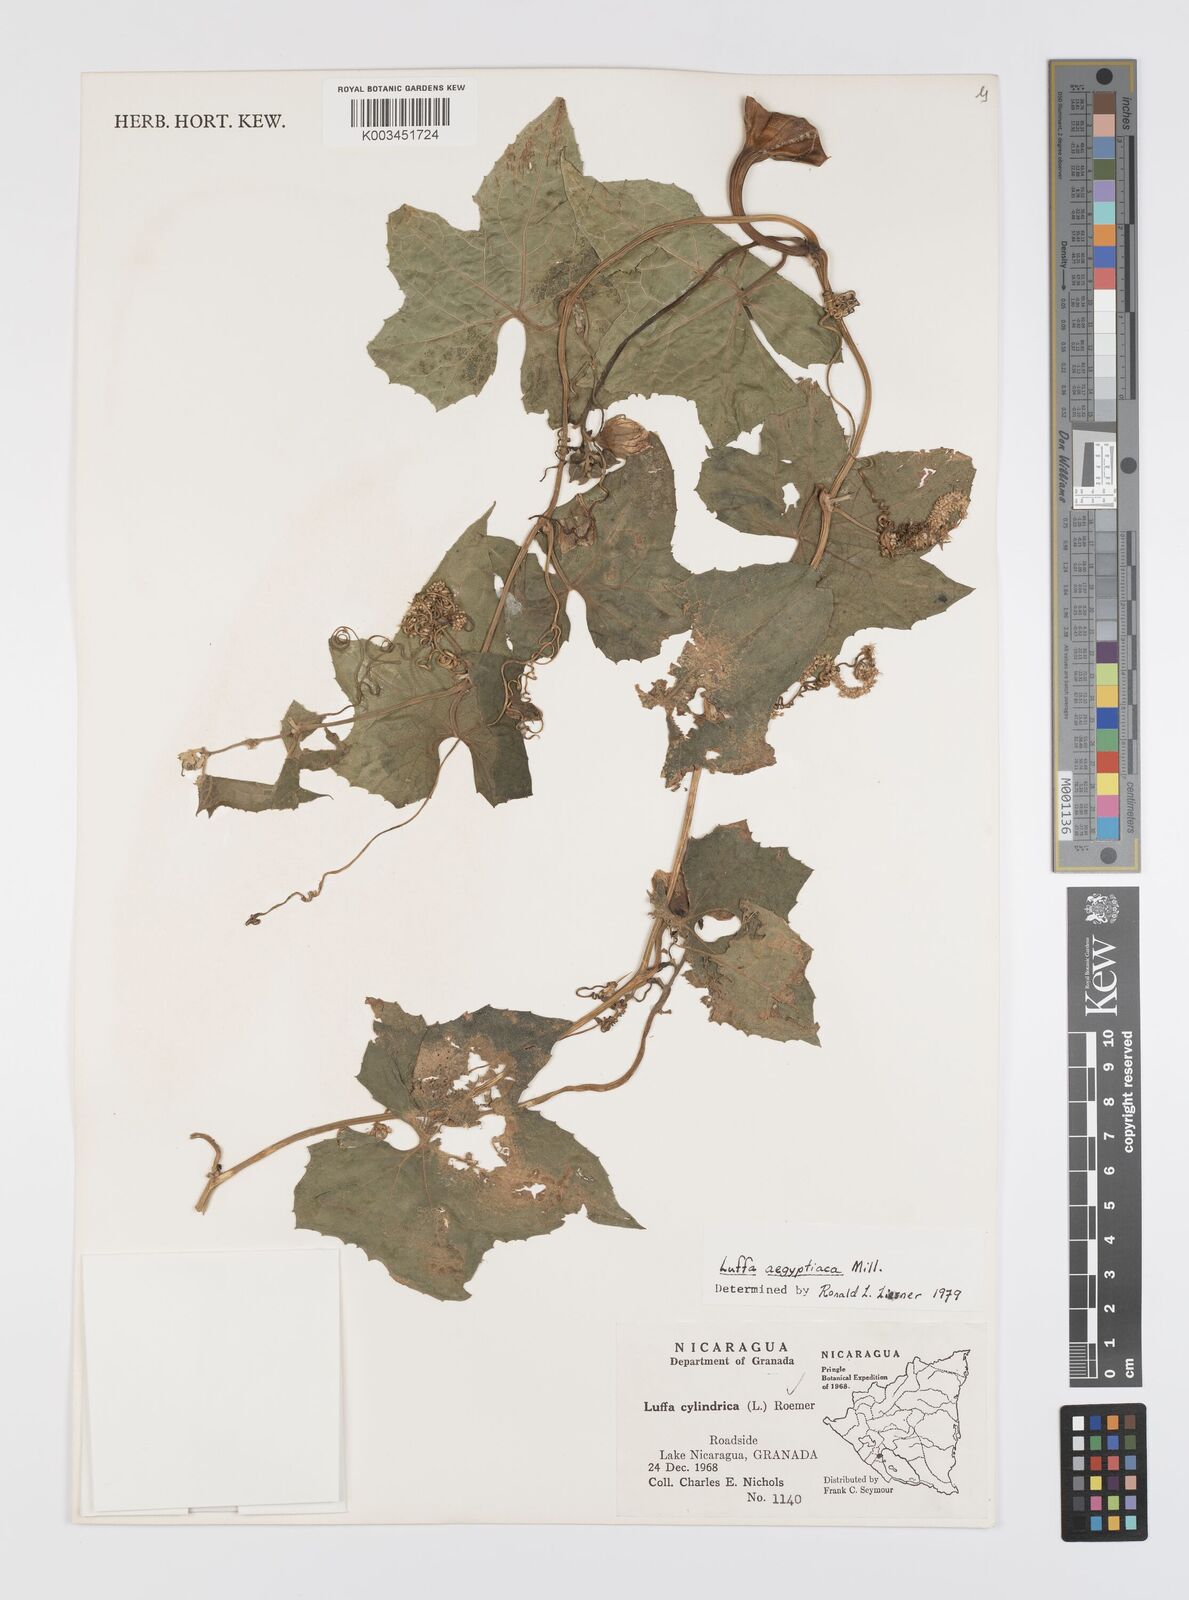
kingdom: Plantae
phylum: Tracheophyta
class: Magnoliopsida
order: Cucurbitales
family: Cucurbitaceae
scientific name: Cucurbitaceae
